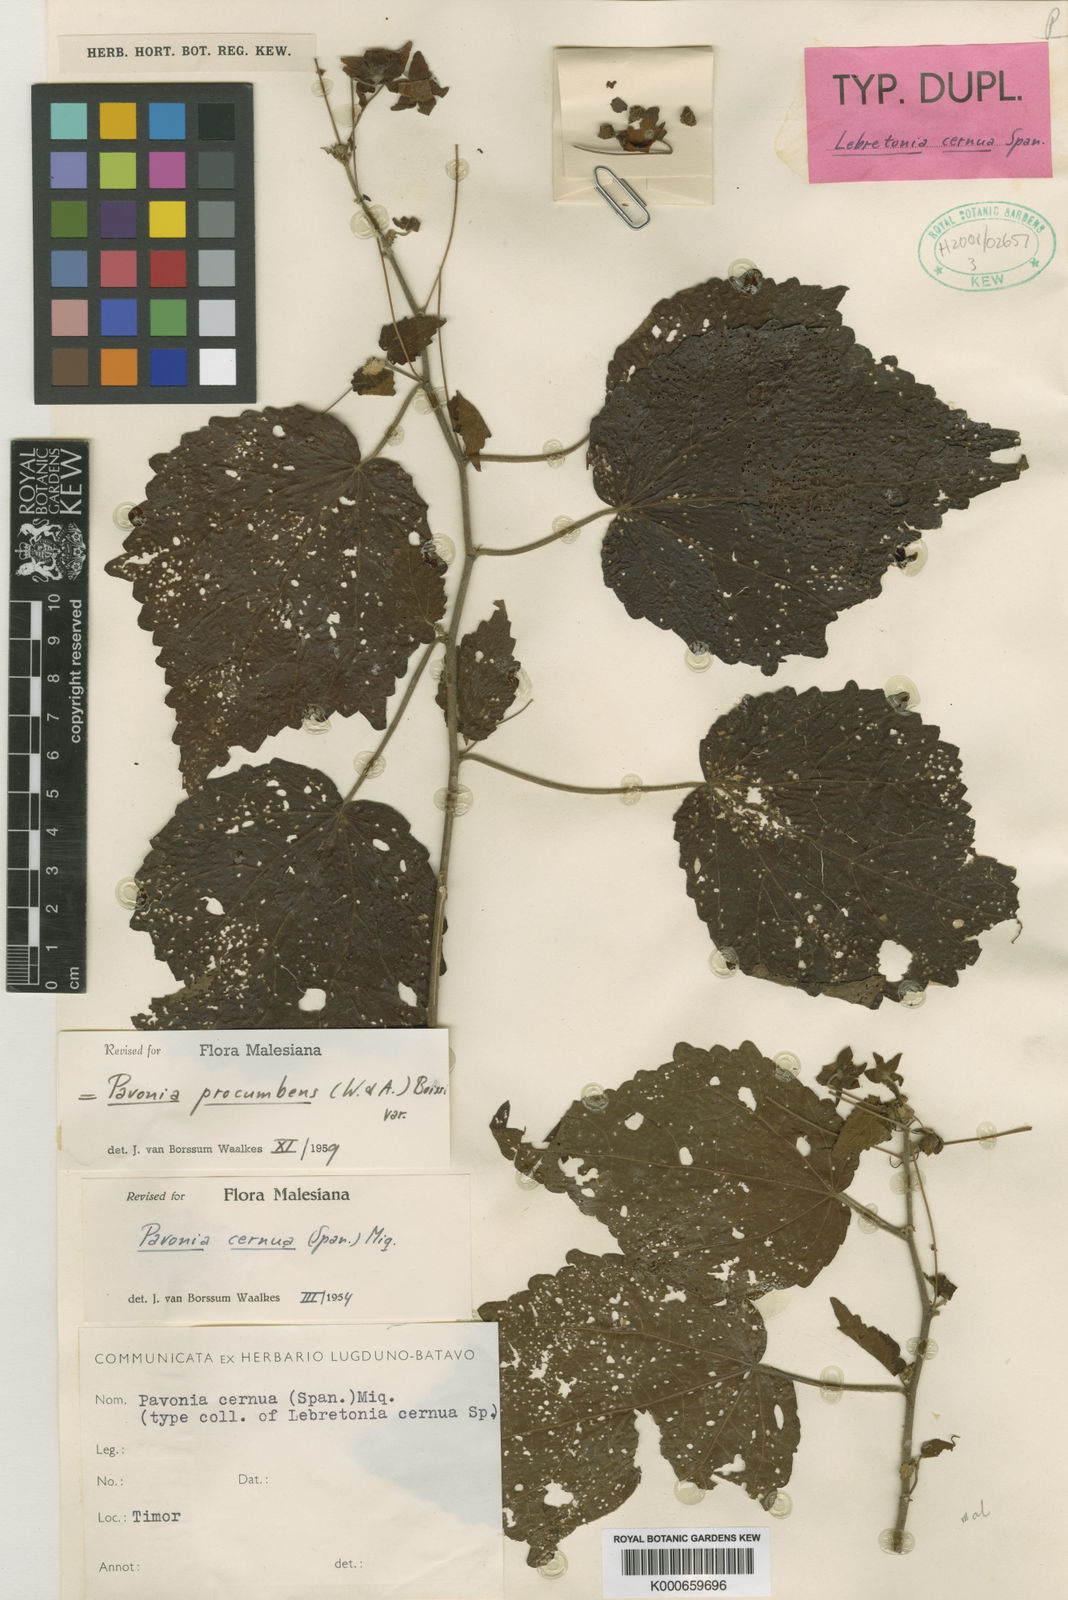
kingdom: Plantae
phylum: Tracheophyta
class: Magnoliopsida
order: Malvales
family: Malvaceae
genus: Pavonia
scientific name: Pavonia procumbens
